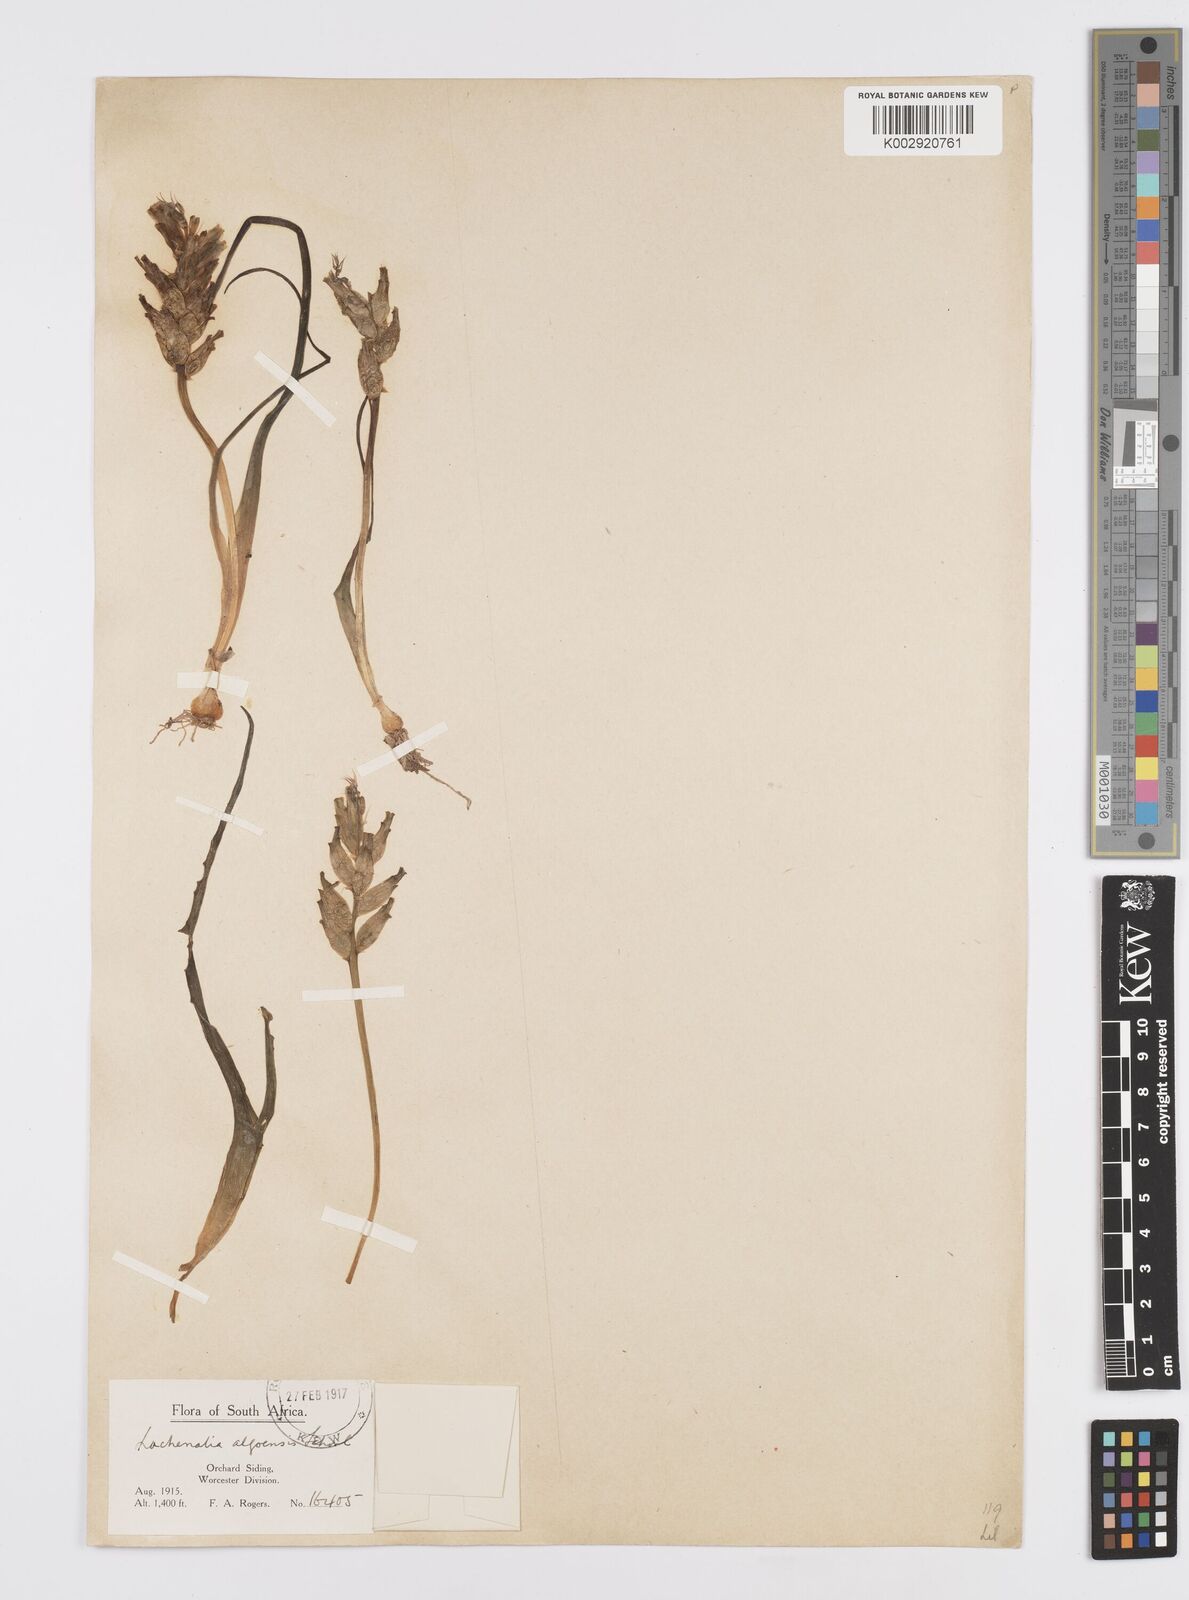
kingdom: Plantae
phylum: Tracheophyta
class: Liliopsida
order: Asparagales
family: Asparagaceae
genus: Lachenalia
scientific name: Lachenalia algoensis
